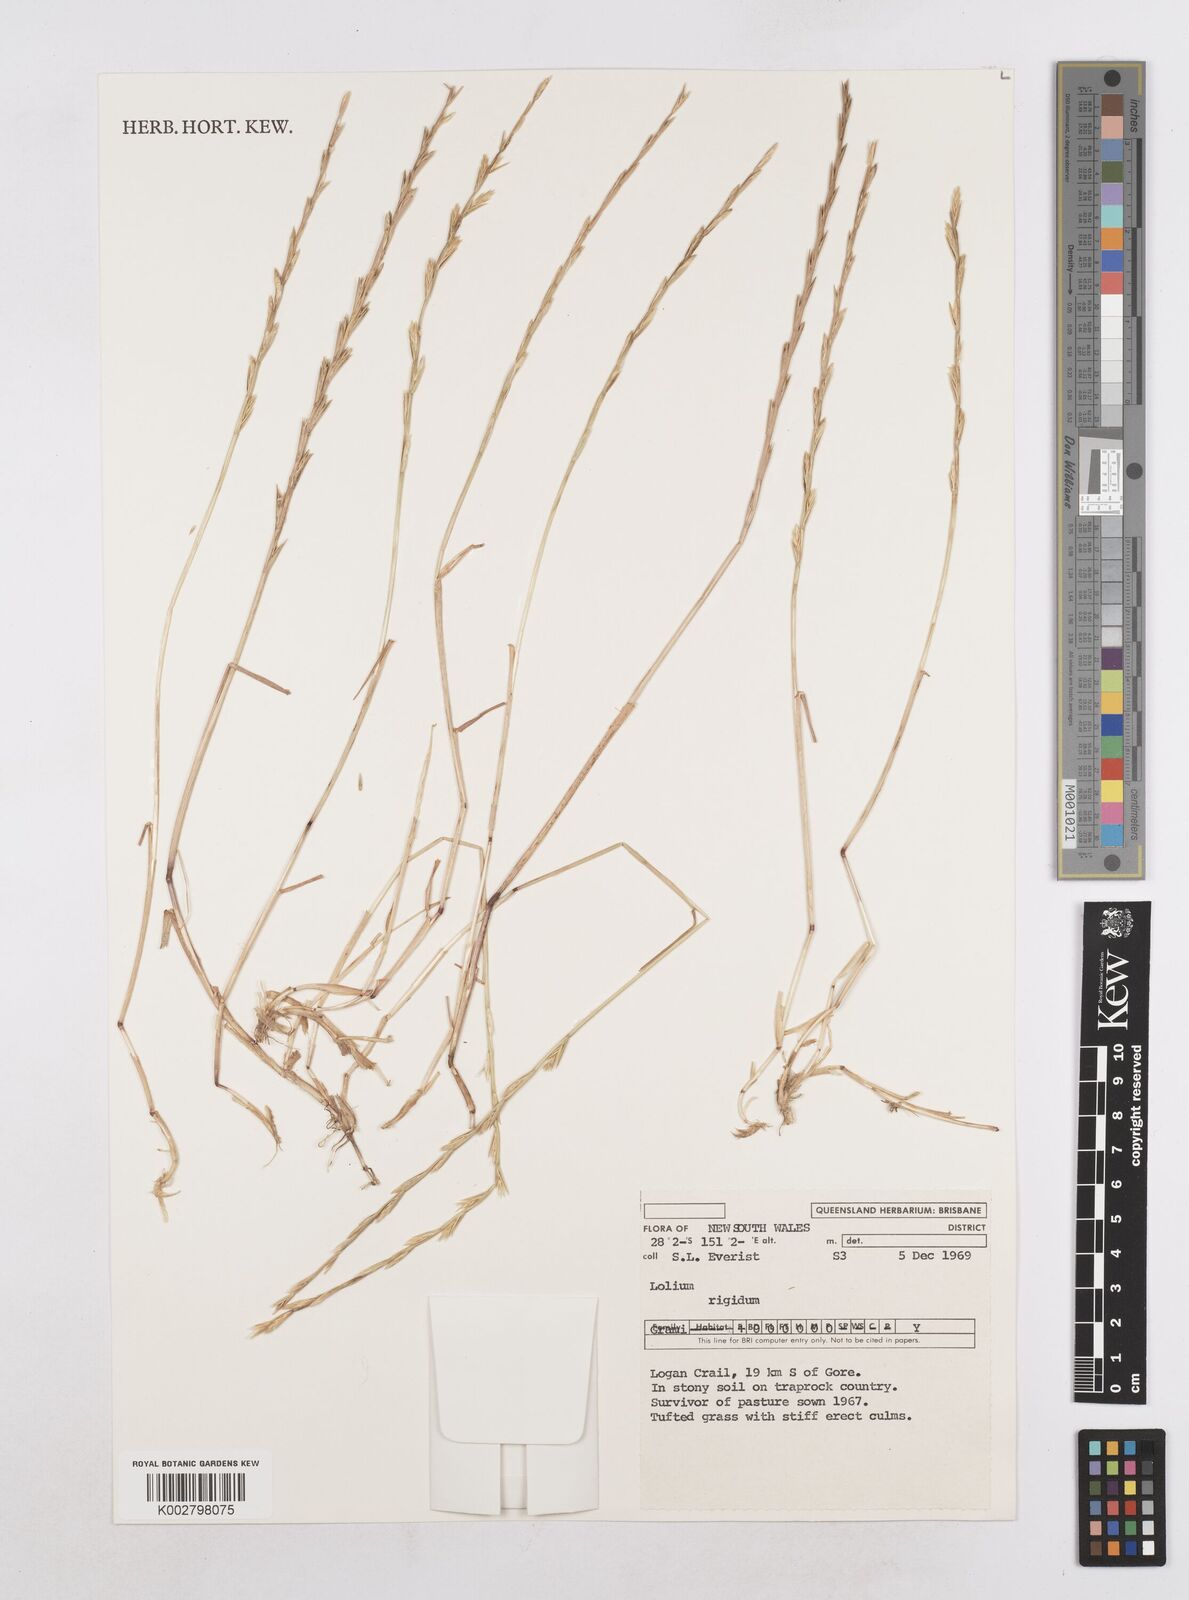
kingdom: Plantae
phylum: Tracheophyta
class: Liliopsida
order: Poales
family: Poaceae
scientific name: Poaceae
